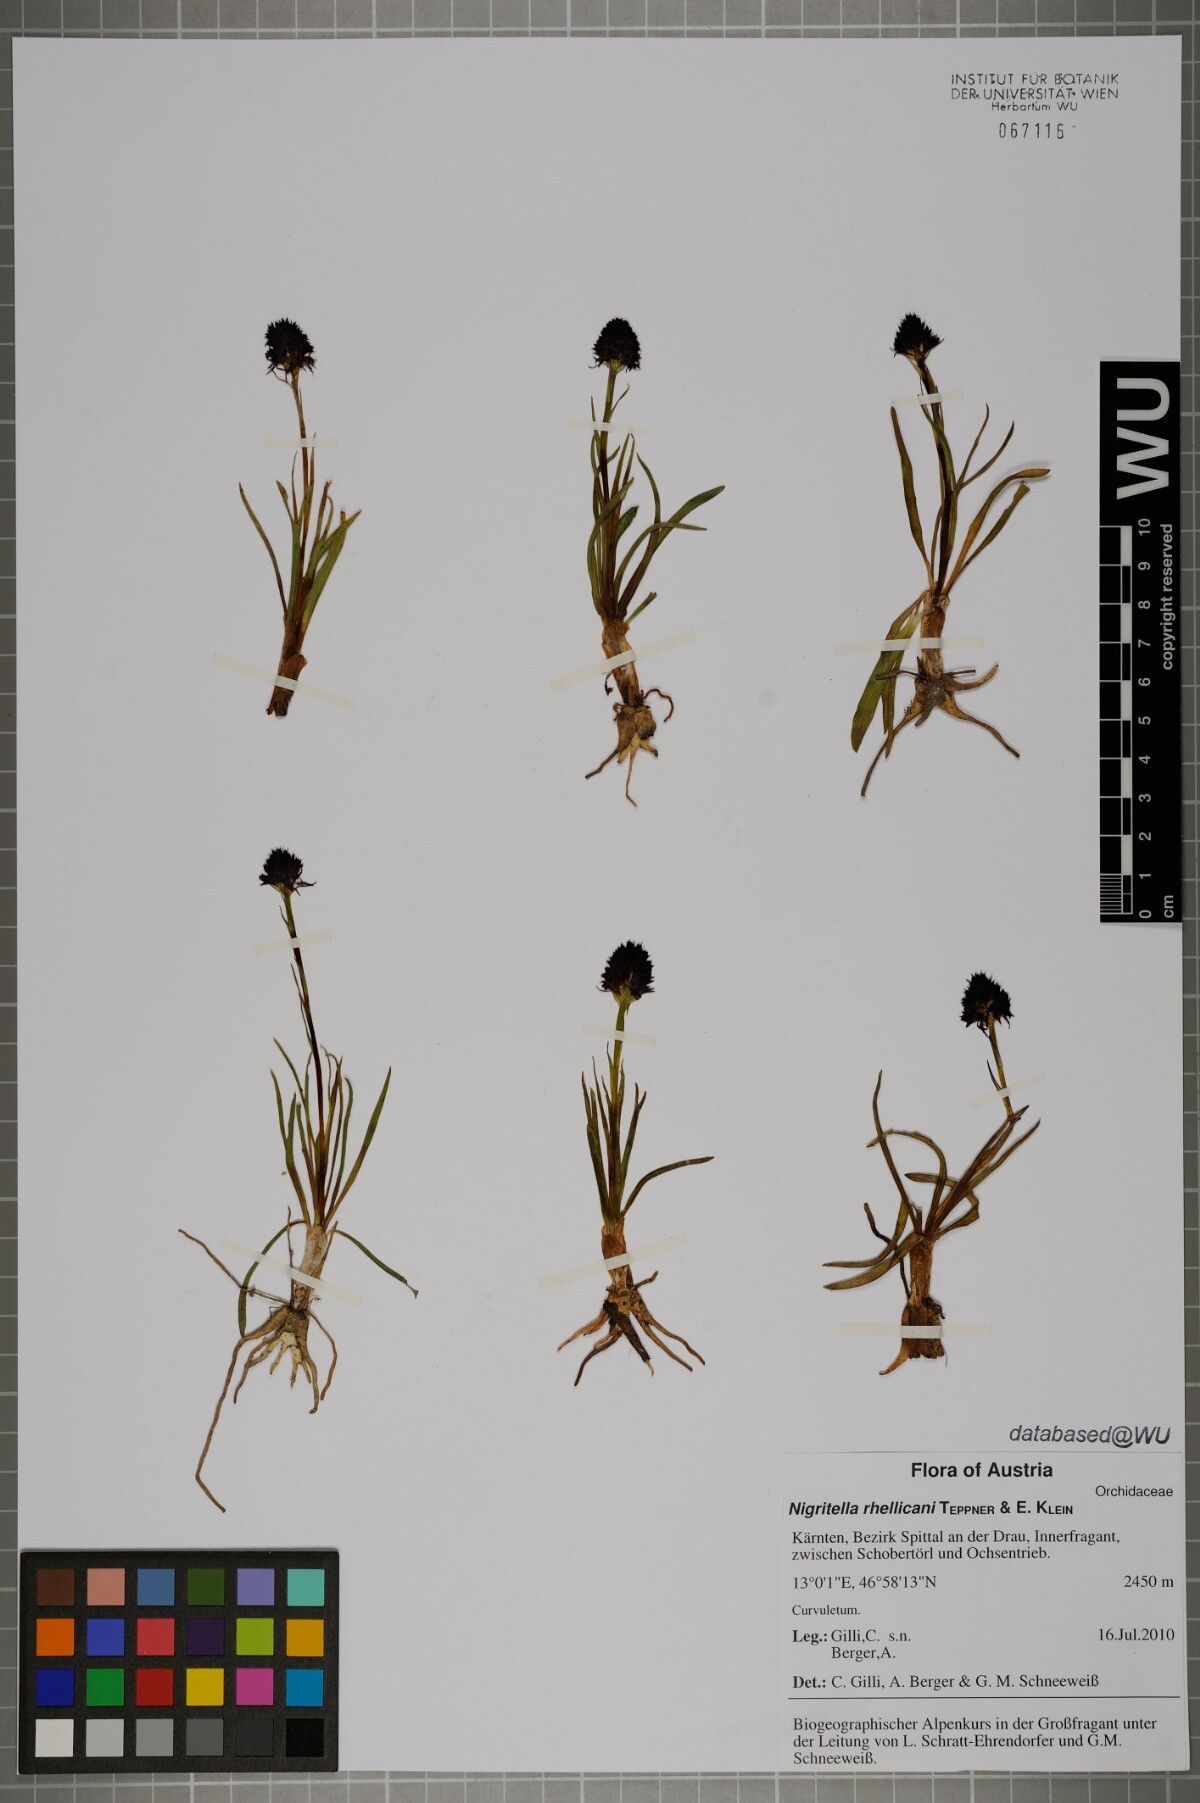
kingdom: Plantae
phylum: Tracheophyta
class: Liliopsida
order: Asparagales
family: Orchidaceae
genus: Gymnadenia
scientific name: Gymnadenia rhellicani
